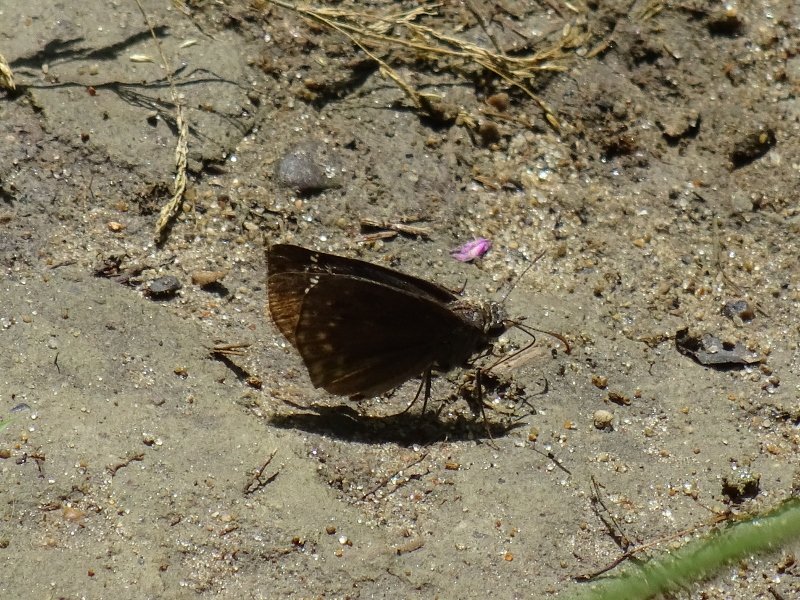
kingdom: Animalia
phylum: Arthropoda
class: Insecta
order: Lepidoptera
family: Hesperiidae
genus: Gesta
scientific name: Gesta
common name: Wild Indigo Duskywing
